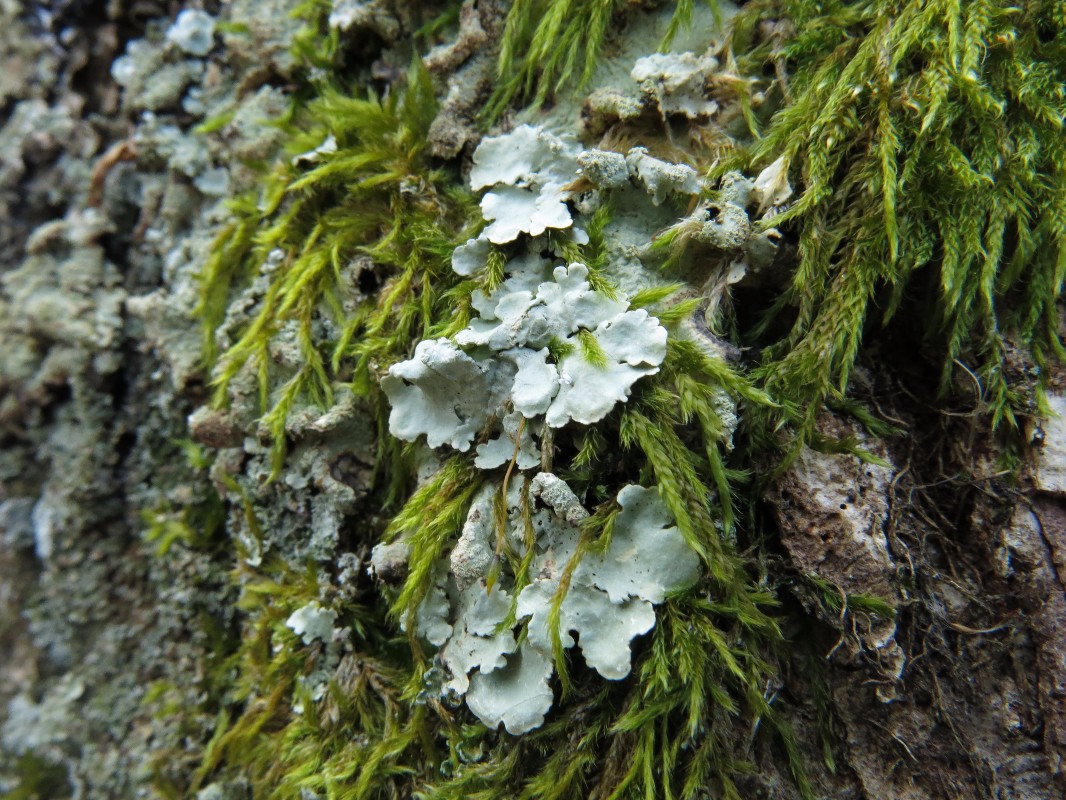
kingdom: Fungi
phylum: Ascomycota
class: Lecanoromycetes
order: Lecanorales
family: Parmeliaceae
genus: Flavoparmelia
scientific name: Flavoparmelia caperata
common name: gulgrøn skållav
